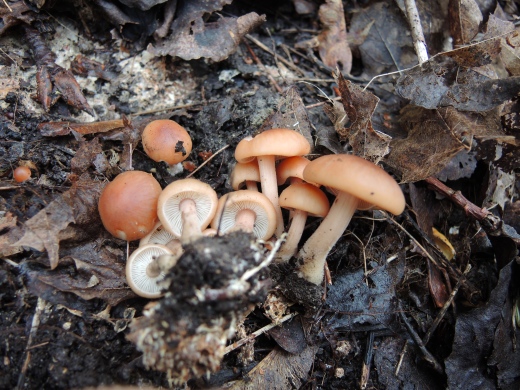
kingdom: Fungi
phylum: Basidiomycota
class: Agaricomycetes
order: Agaricales
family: Omphalotaceae
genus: Gymnopus
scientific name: Gymnopus hariolorum
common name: hvidkåls-fladhat
